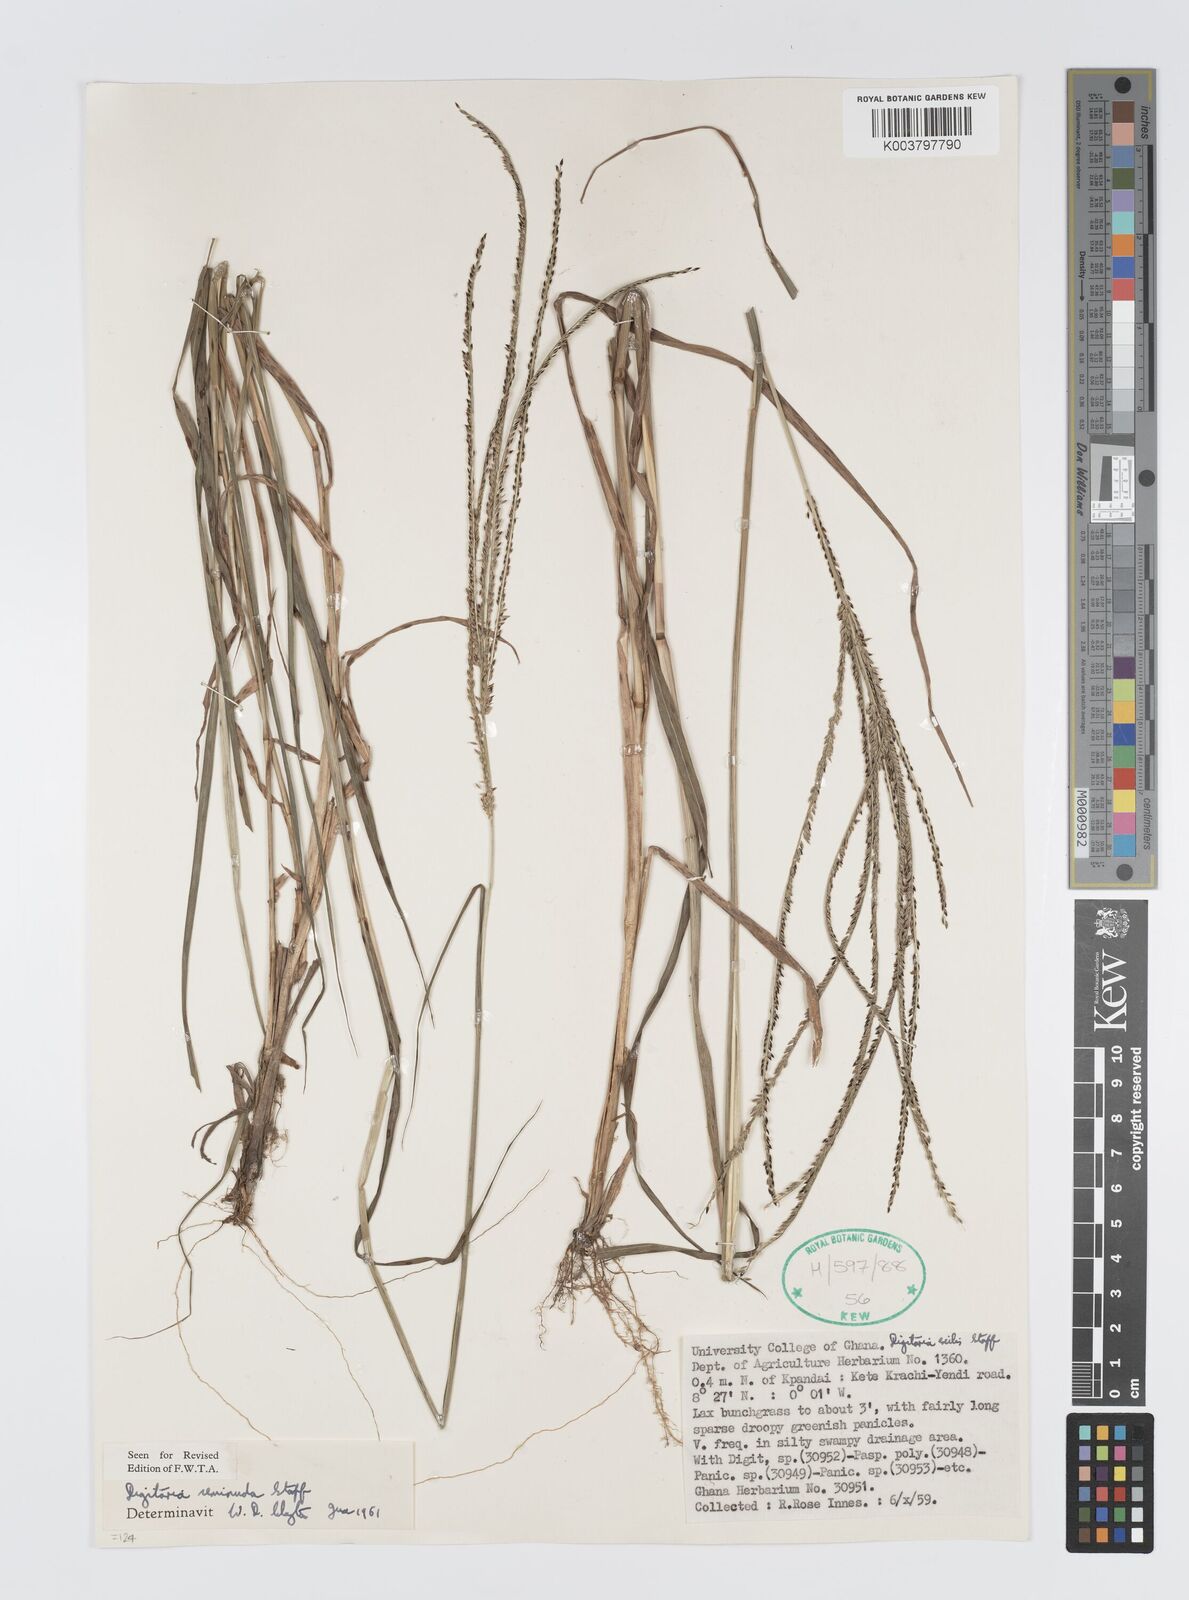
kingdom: Plantae
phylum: Tracheophyta
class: Liliopsida
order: Poales
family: Poaceae
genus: Digitaria
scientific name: Digitaria atrofusca
